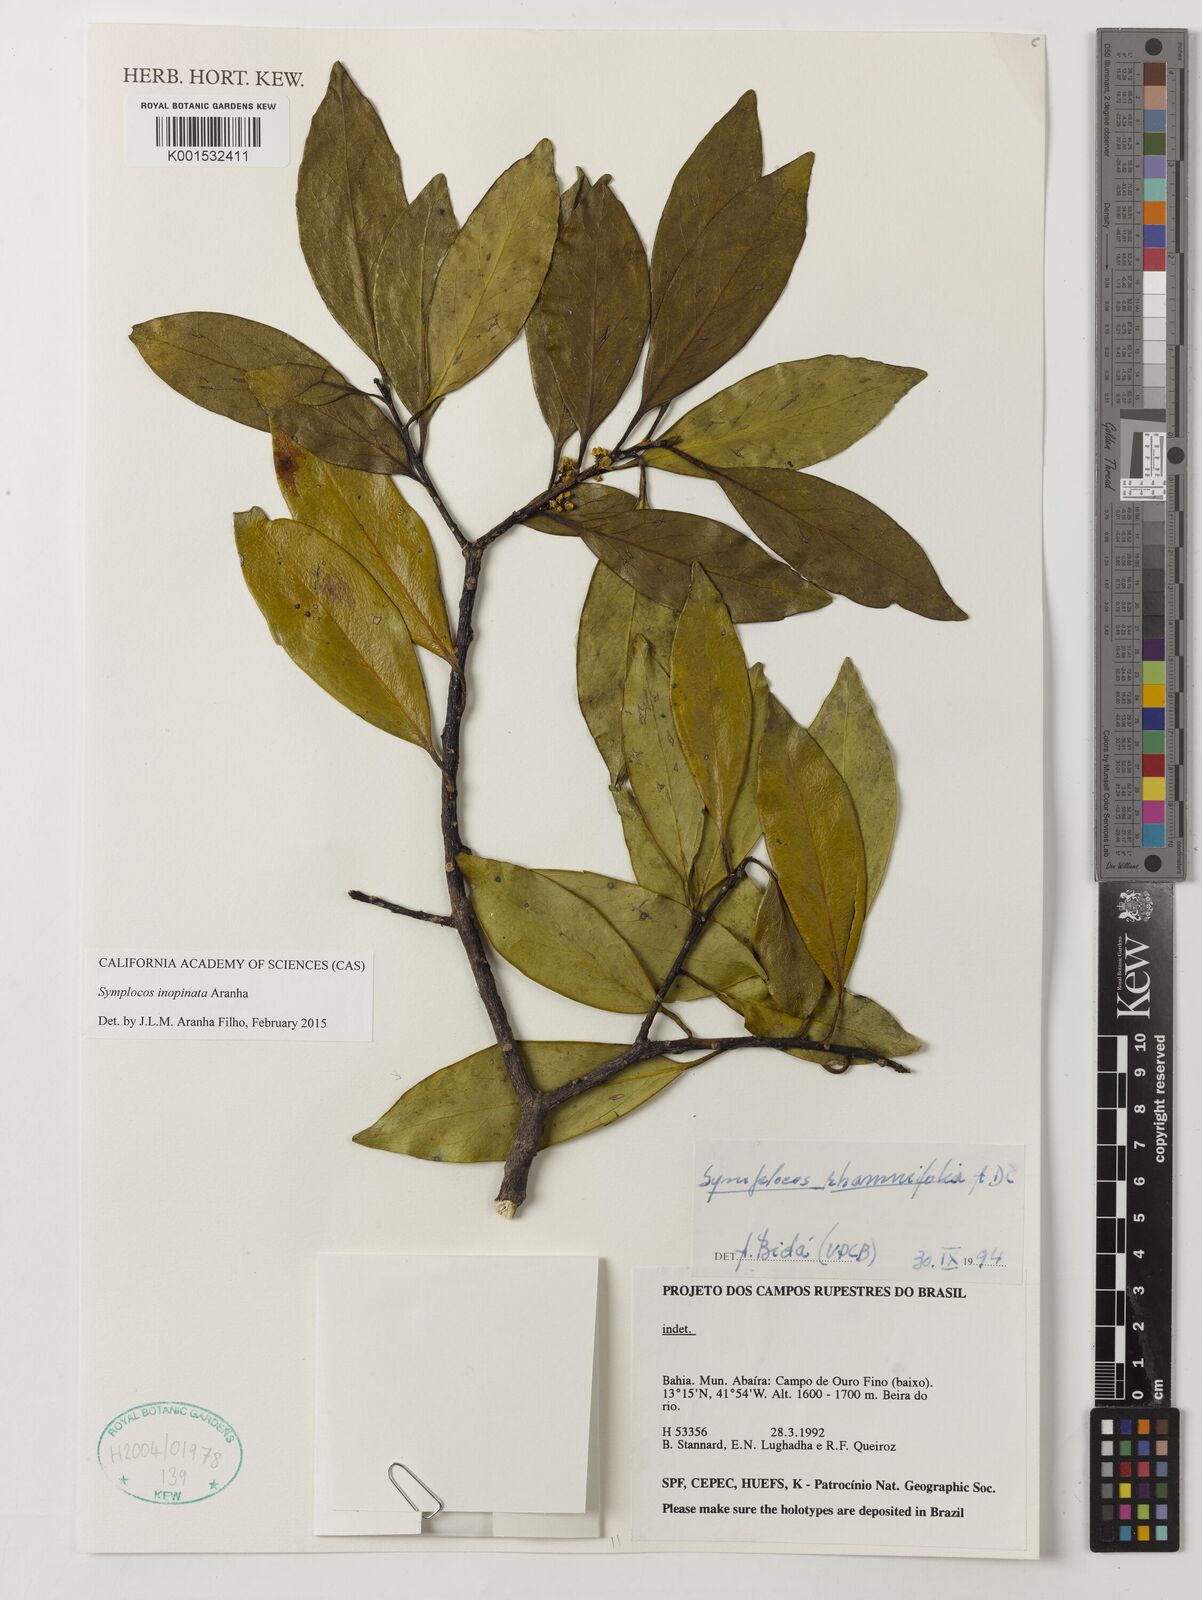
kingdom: Plantae
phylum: Tracheophyta
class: Magnoliopsida
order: Ericales
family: Symplocaceae
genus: Symplocos
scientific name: Symplocos inopinata
